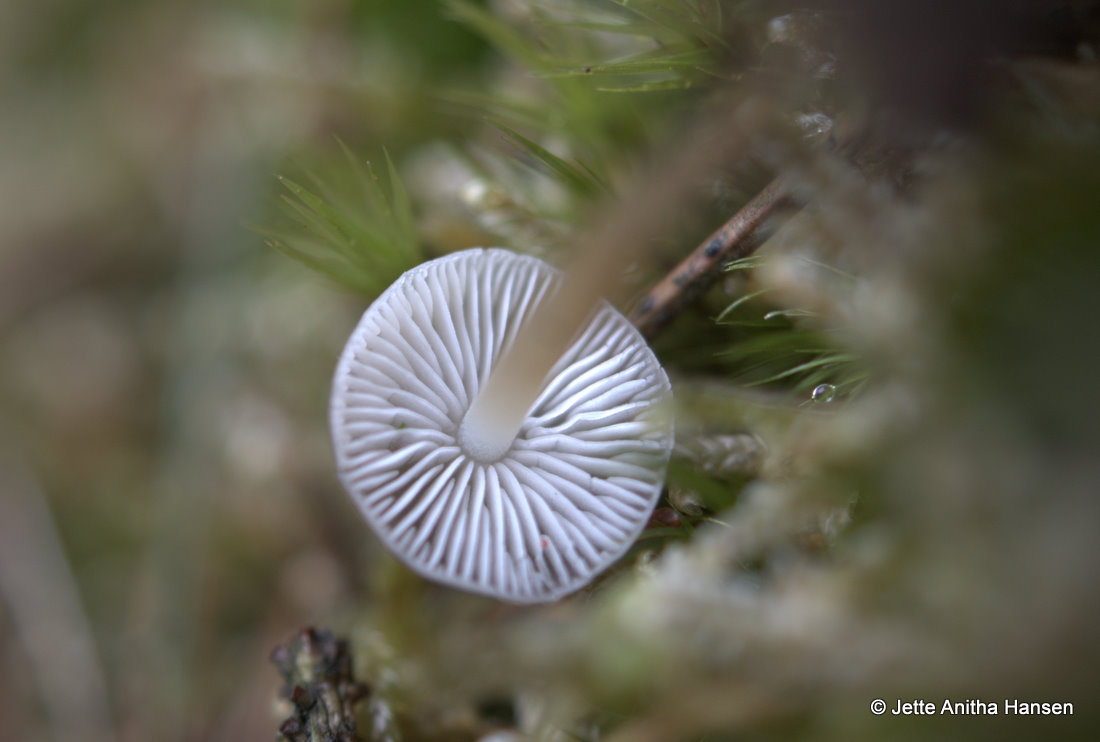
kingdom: Fungi
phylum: Basidiomycota
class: Agaricomycetes
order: Agaricales
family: Physalacriaceae
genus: Strobilurus
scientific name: Strobilurus esculentus
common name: gran-koglehat
